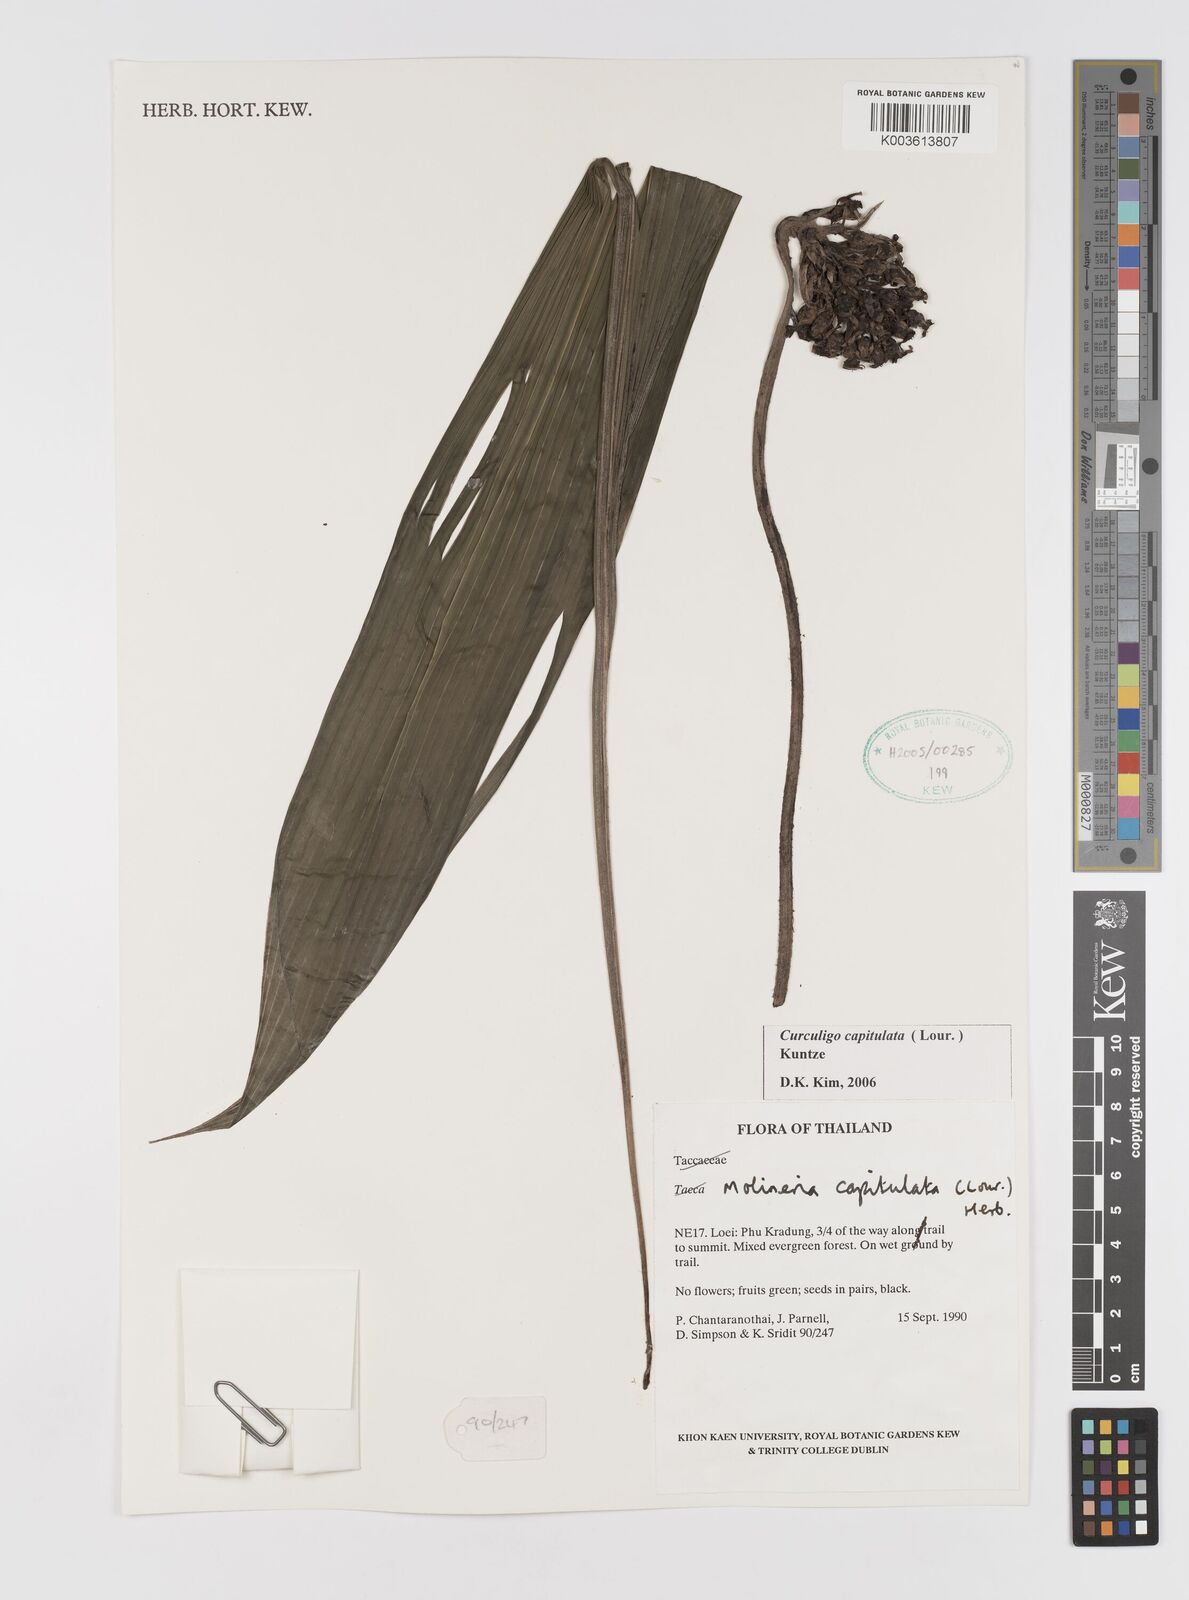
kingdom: Plantae
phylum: Tracheophyta
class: Liliopsida
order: Asparagales
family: Hypoxidaceae
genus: Curculigo
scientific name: Curculigo capitulata
